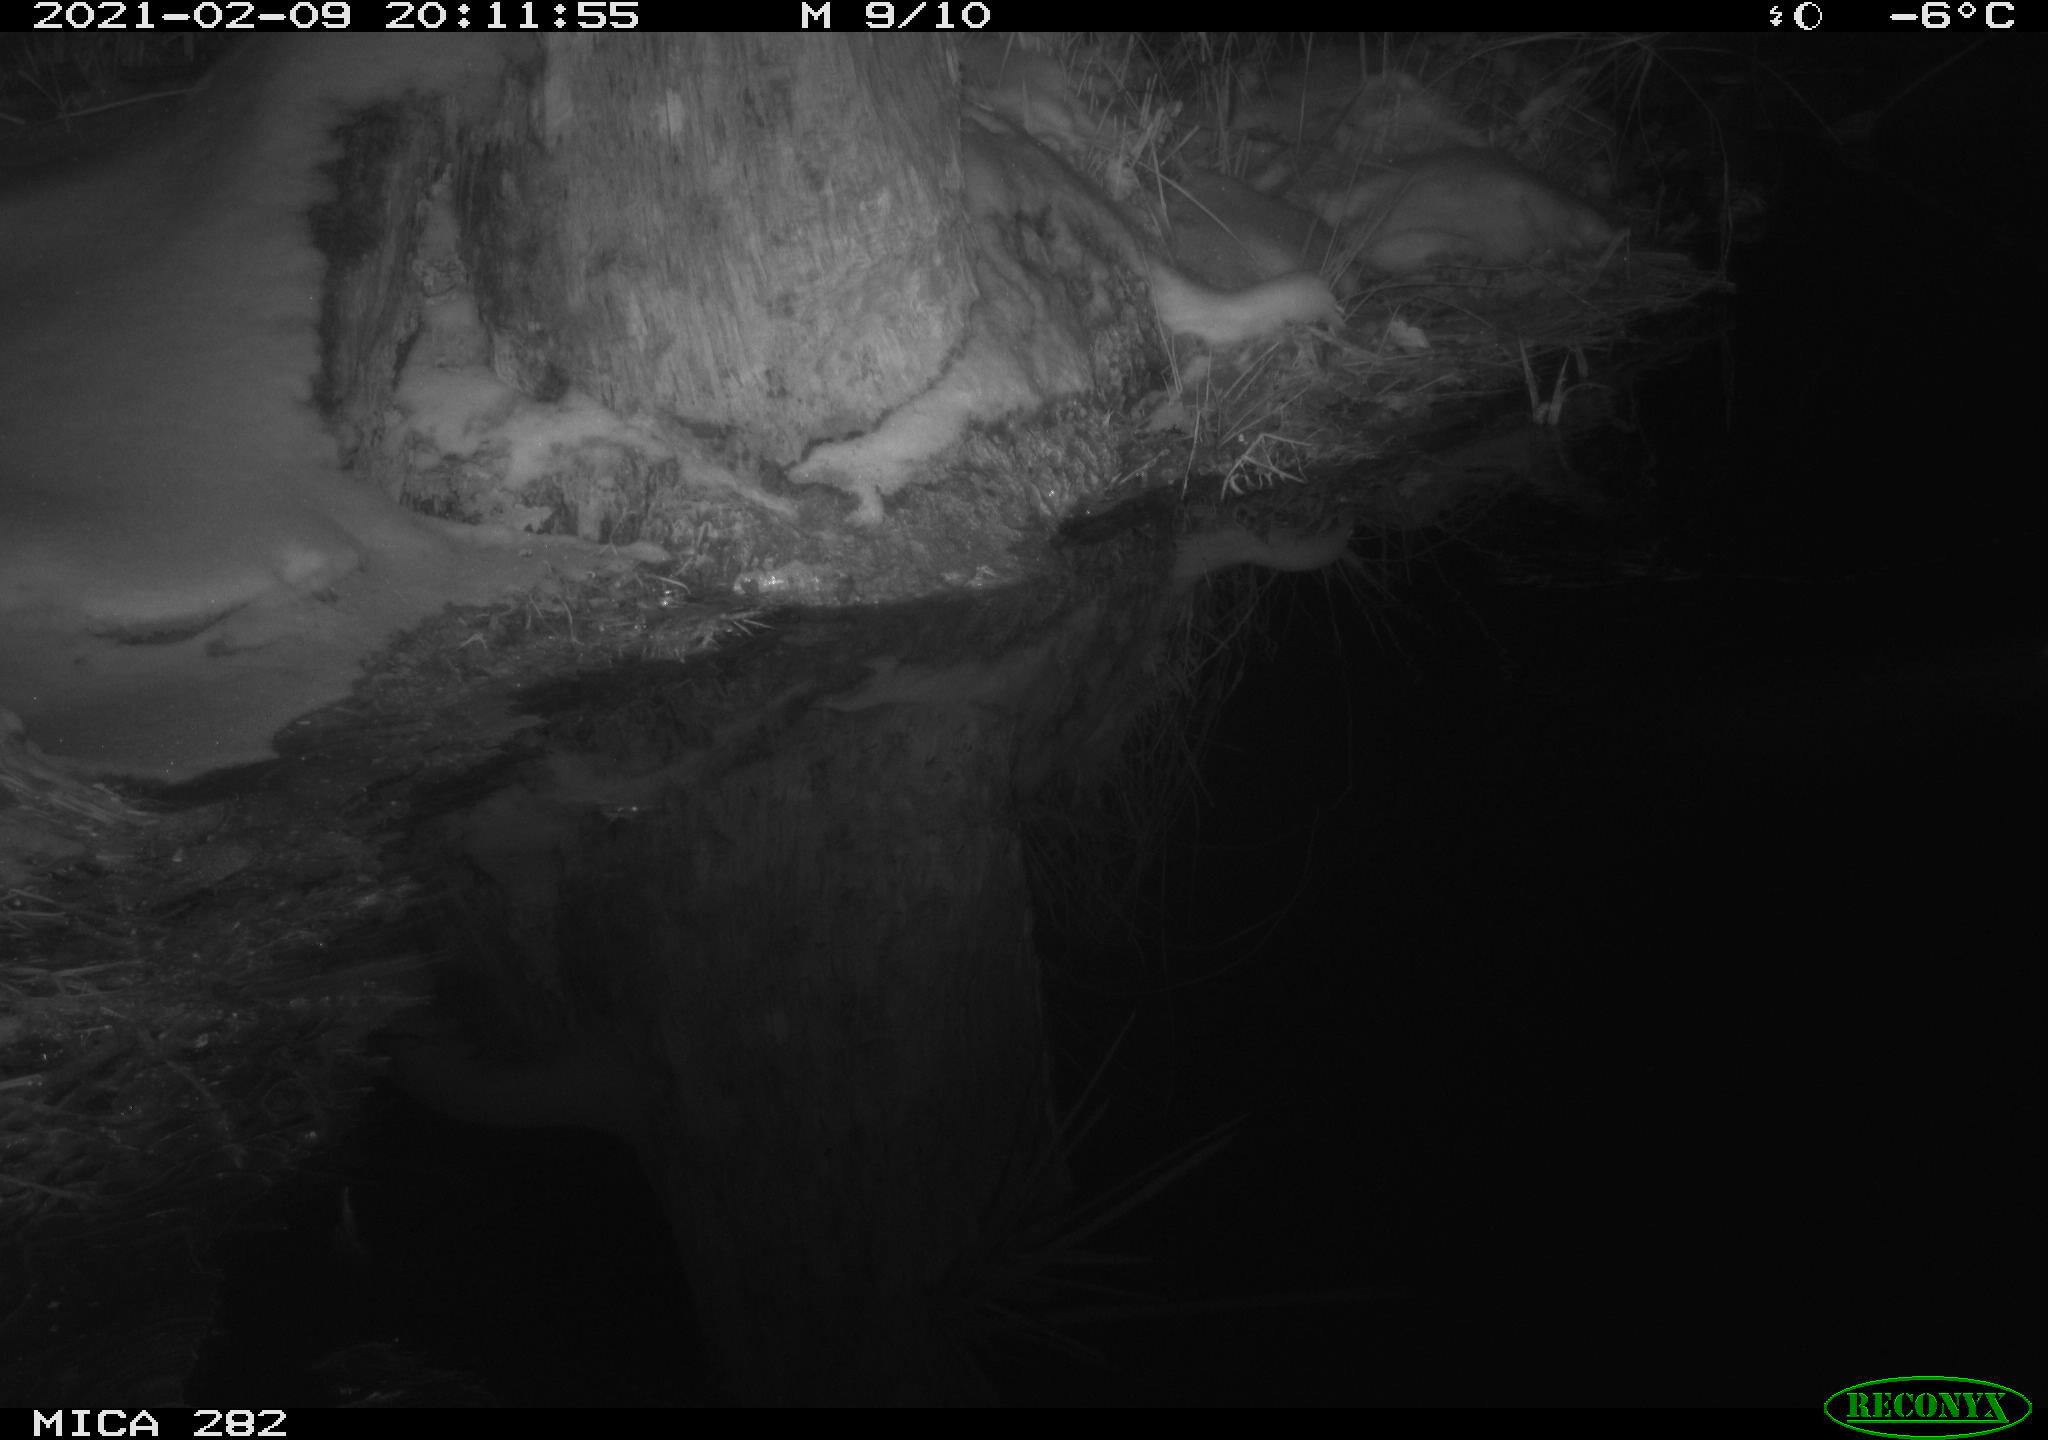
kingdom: Animalia
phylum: Chordata
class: Mammalia
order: Carnivora
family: Canidae
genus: Vulpes
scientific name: Vulpes vulpes
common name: Red fox
